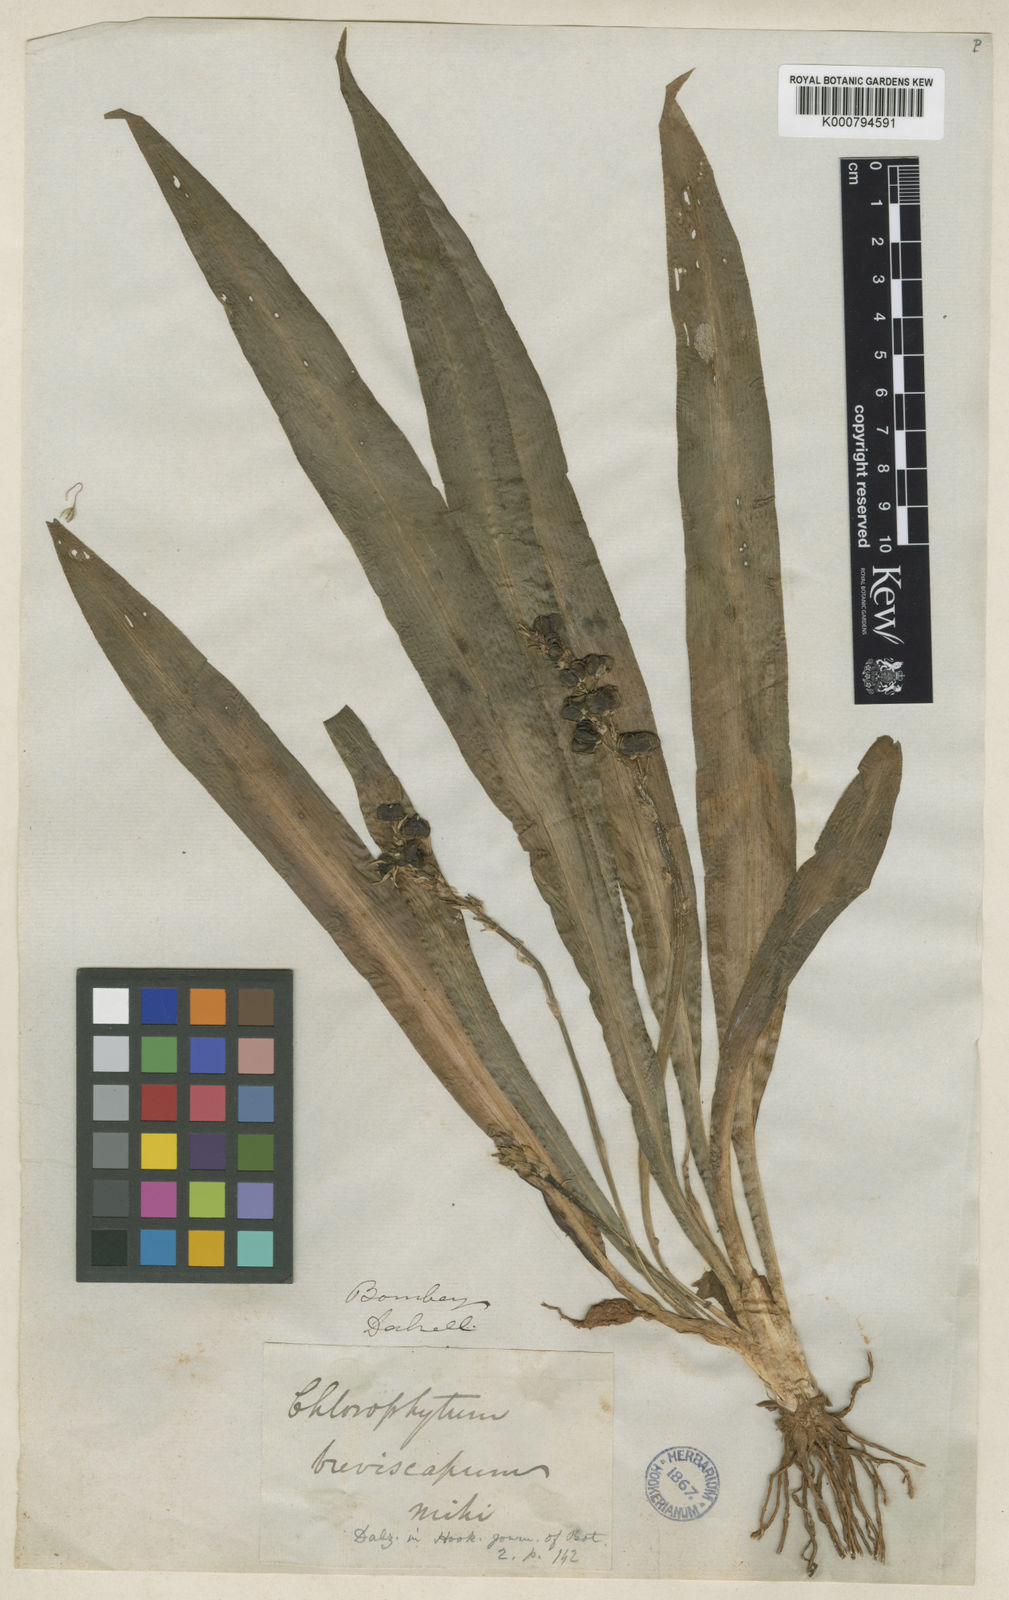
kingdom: Plantae
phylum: Tracheophyta
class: Liliopsida
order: Asparagales
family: Asparagaceae
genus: Chlorophytum
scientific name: Chlorophytum breviscapum
